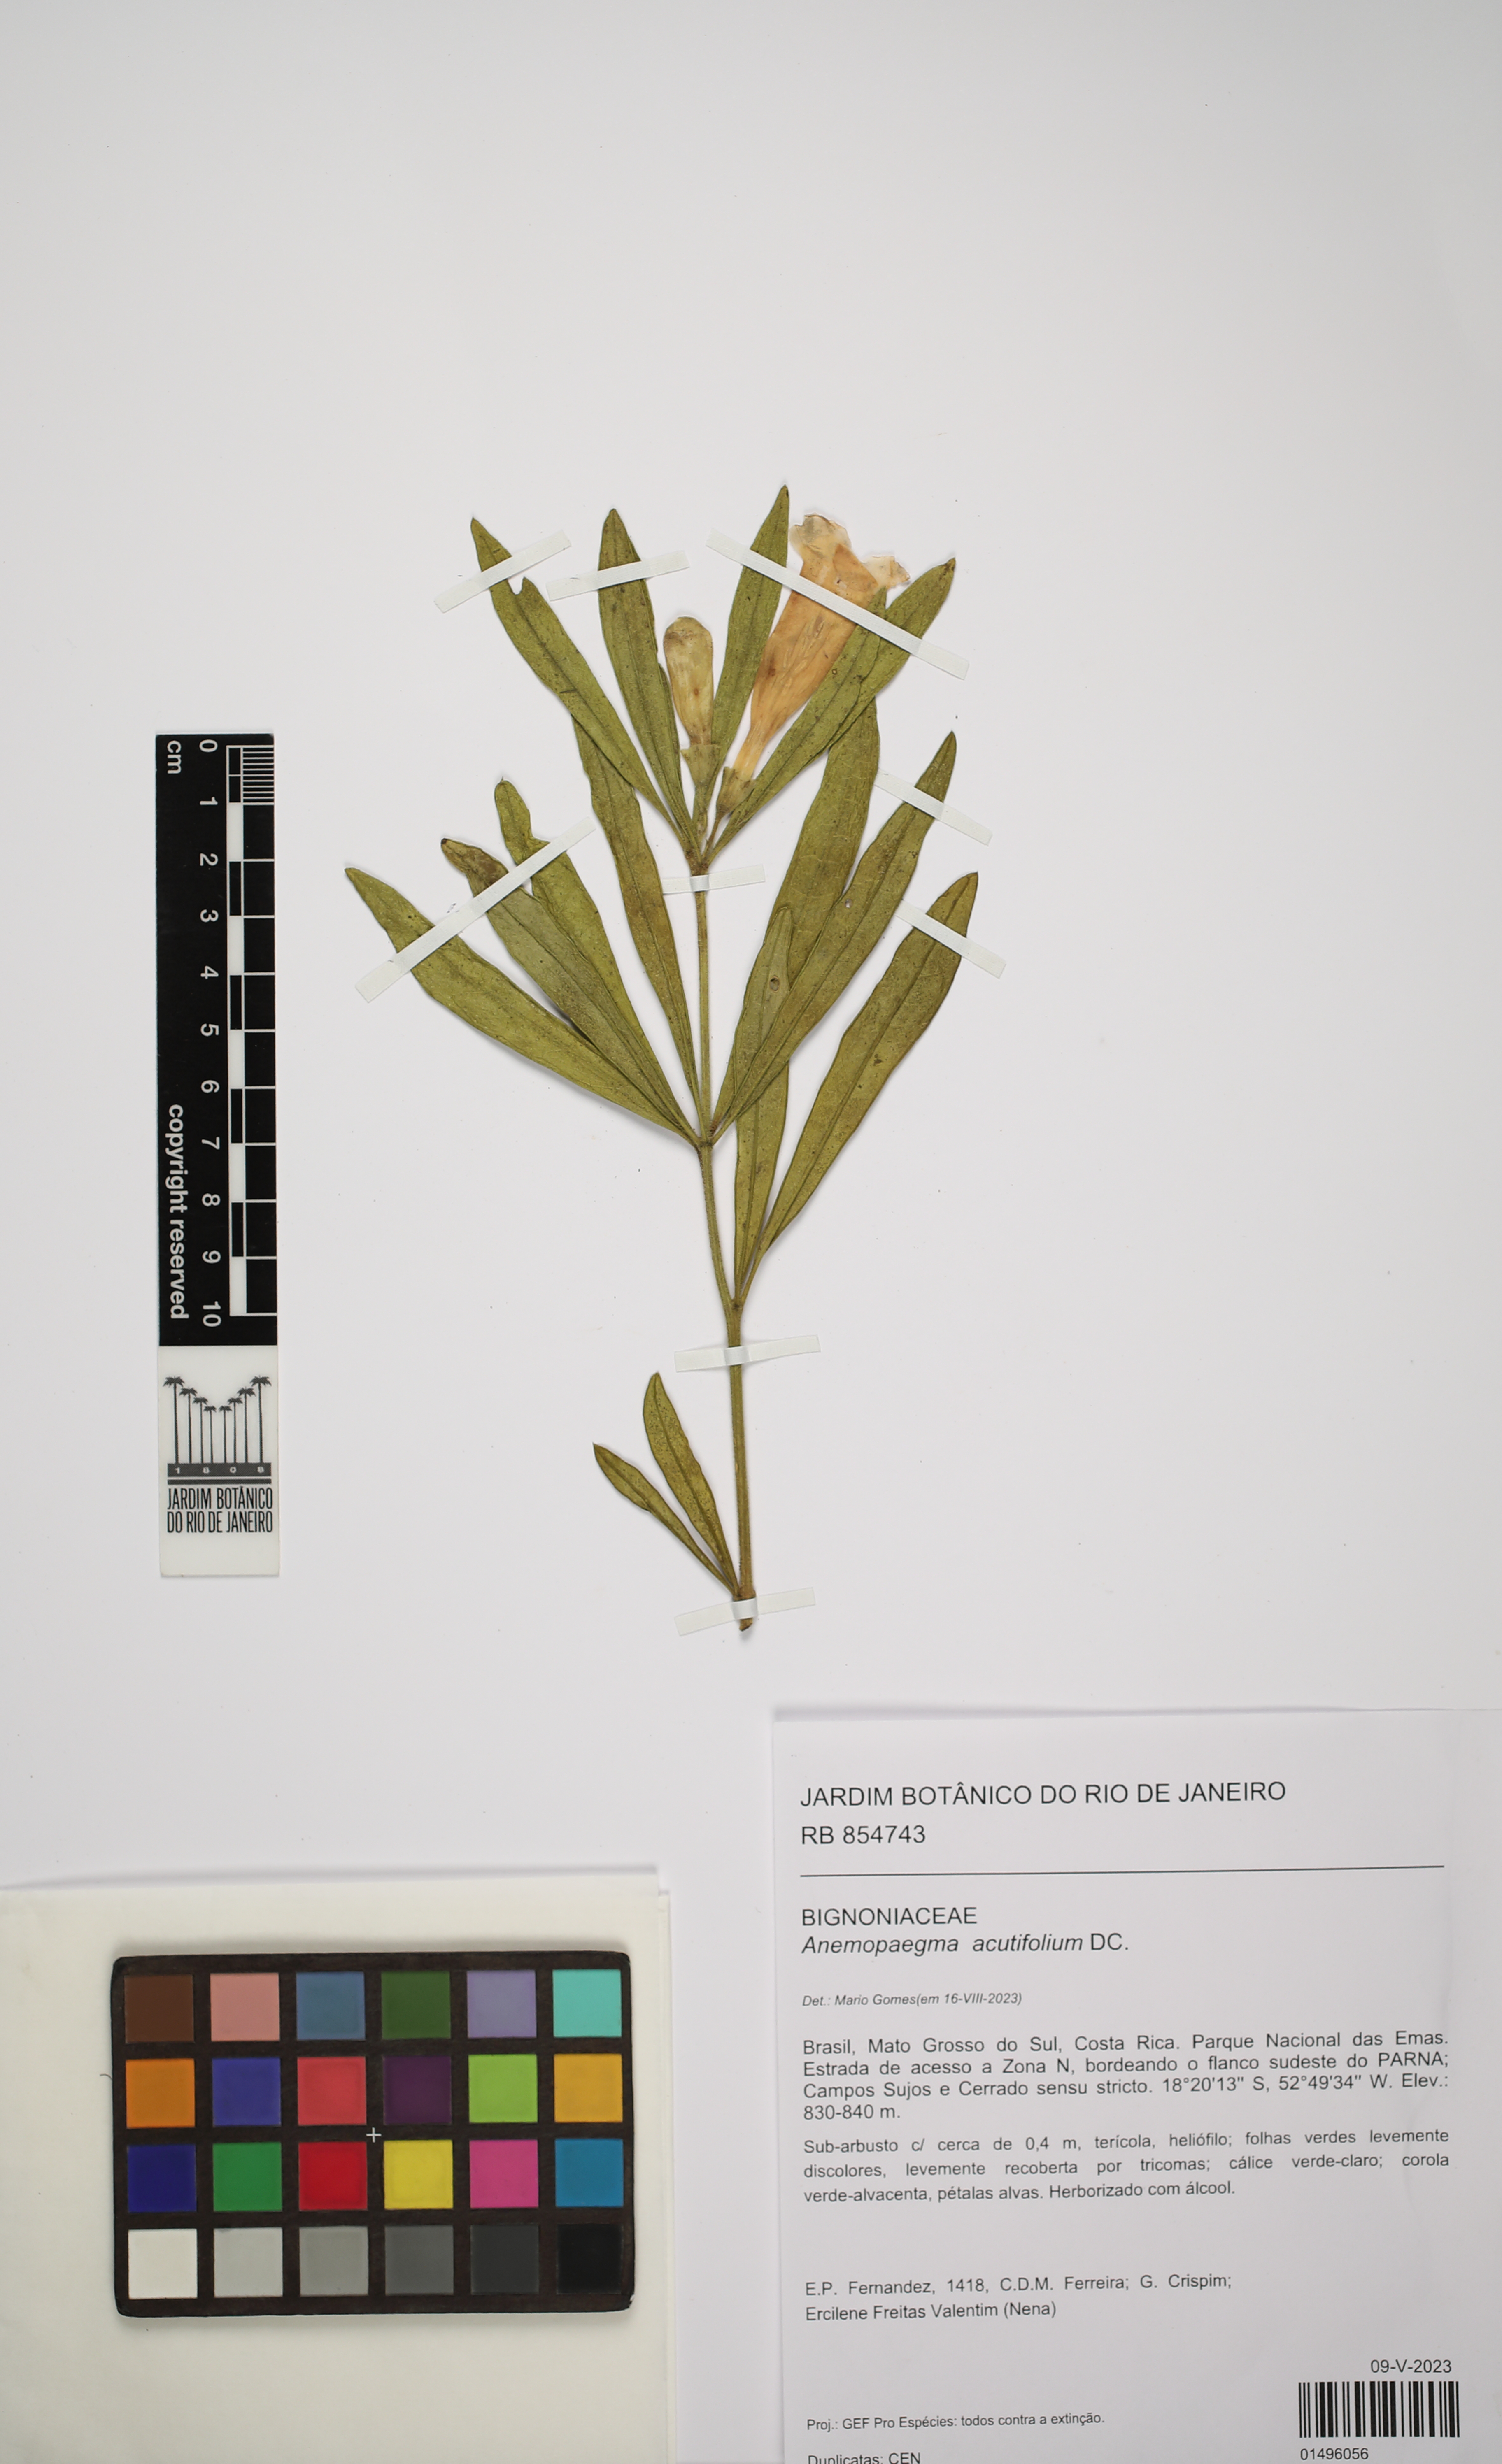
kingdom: Plantae
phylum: Tracheophyta
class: Magnoliopsida
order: Lamiales
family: Bignoniaceae
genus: Anemopaegma
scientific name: Anemopaegma acutifolium
